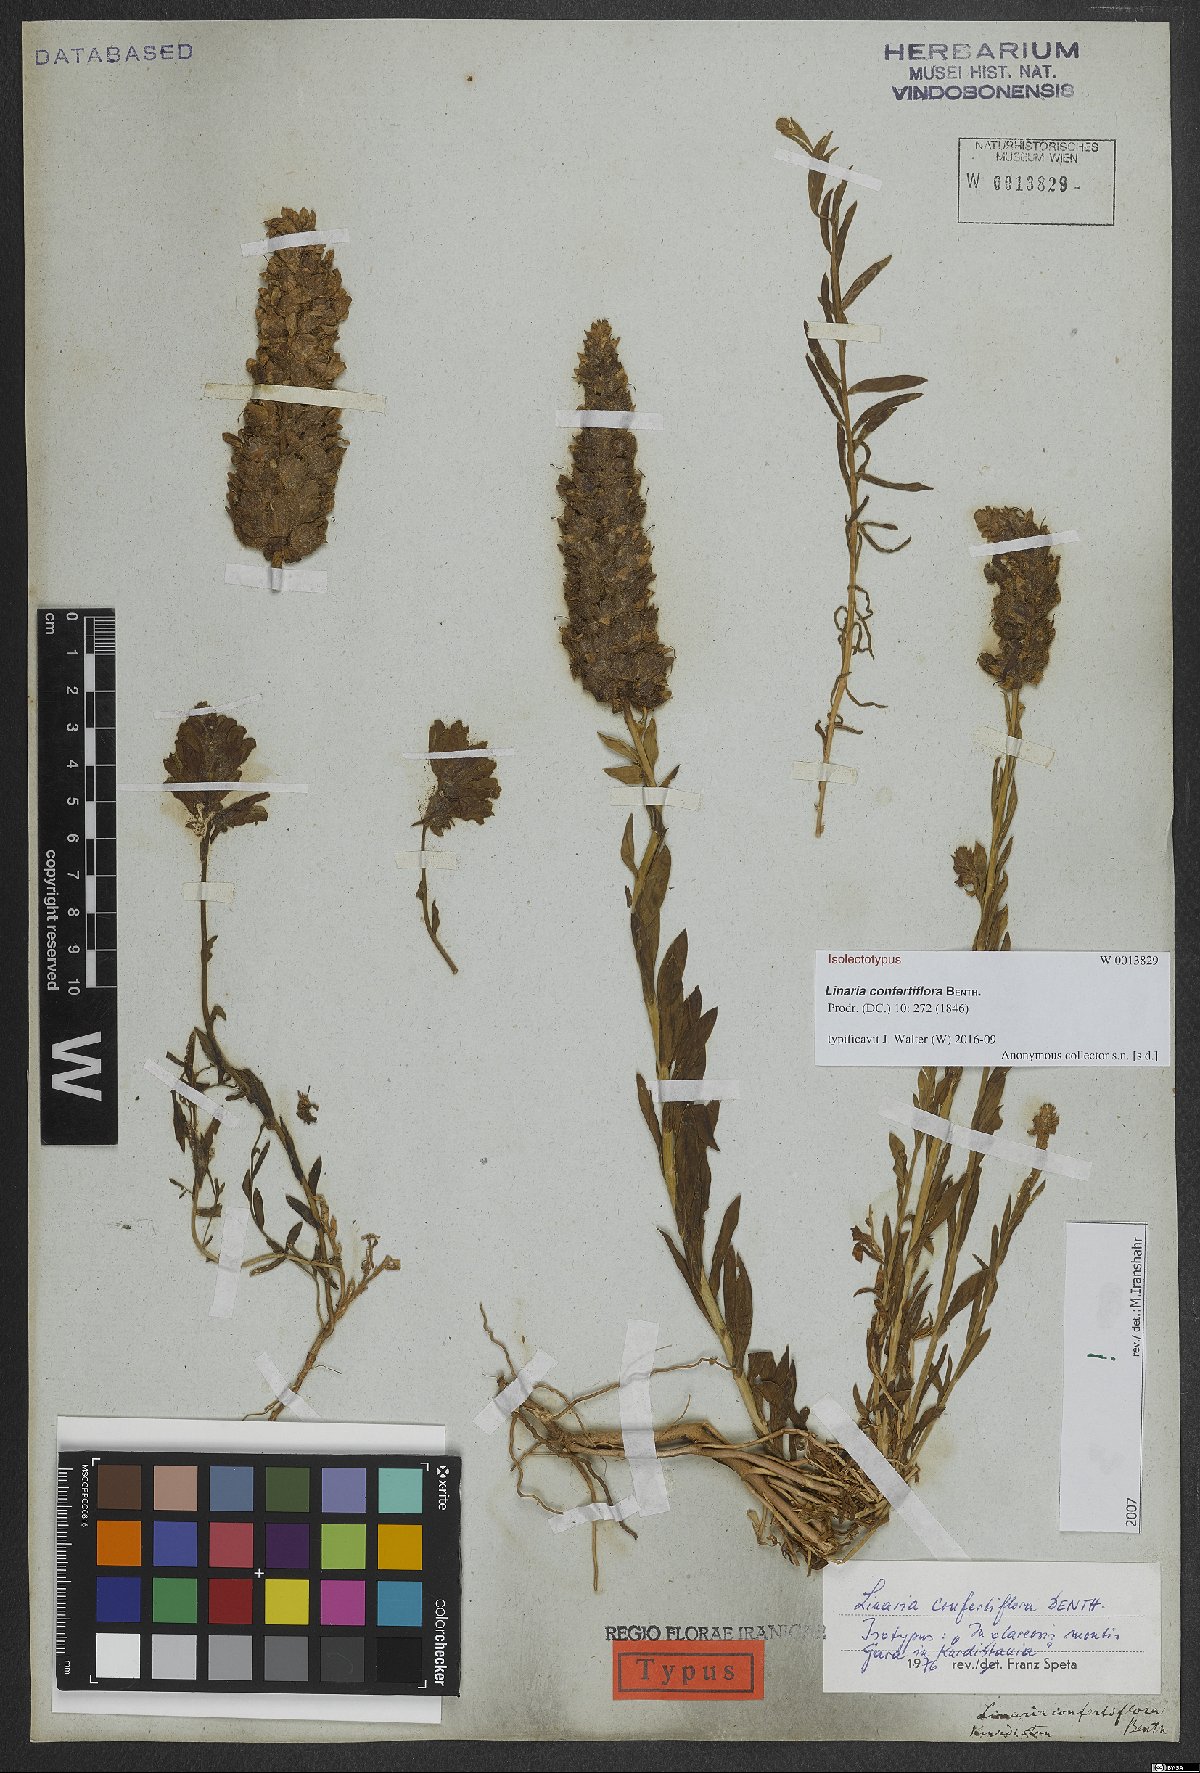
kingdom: Plantae
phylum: Tracheophyta
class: Magnoliopsida
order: Lamiales
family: Plantaginaceae
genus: Linaria
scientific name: Linaria confertiflora
